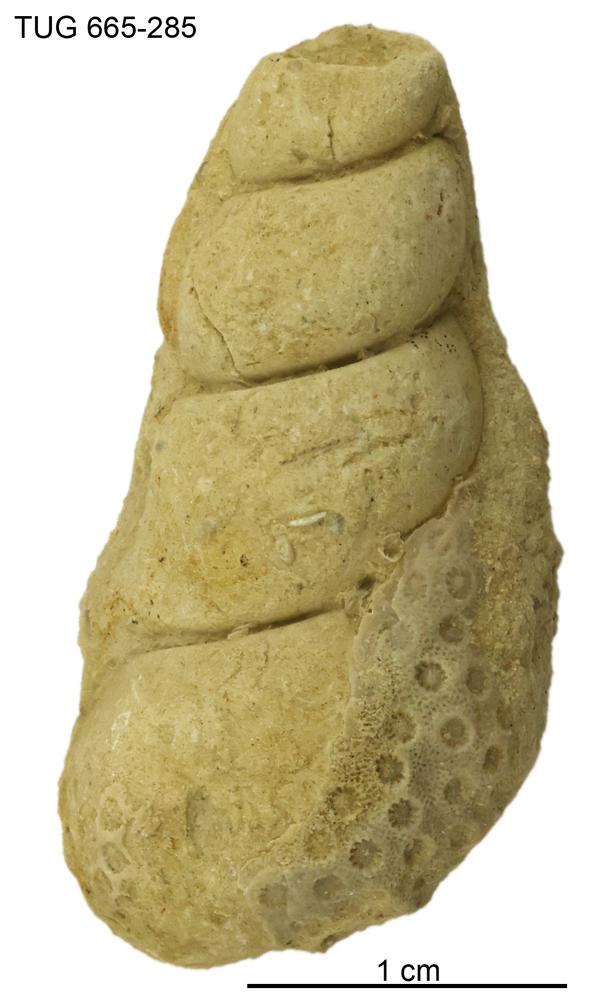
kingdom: Animalia
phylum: Mollusca
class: Gastropoda
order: Pleurotomariida
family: Murchisoniidae
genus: Murchisonia
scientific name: Murchisonia scrobiculata
